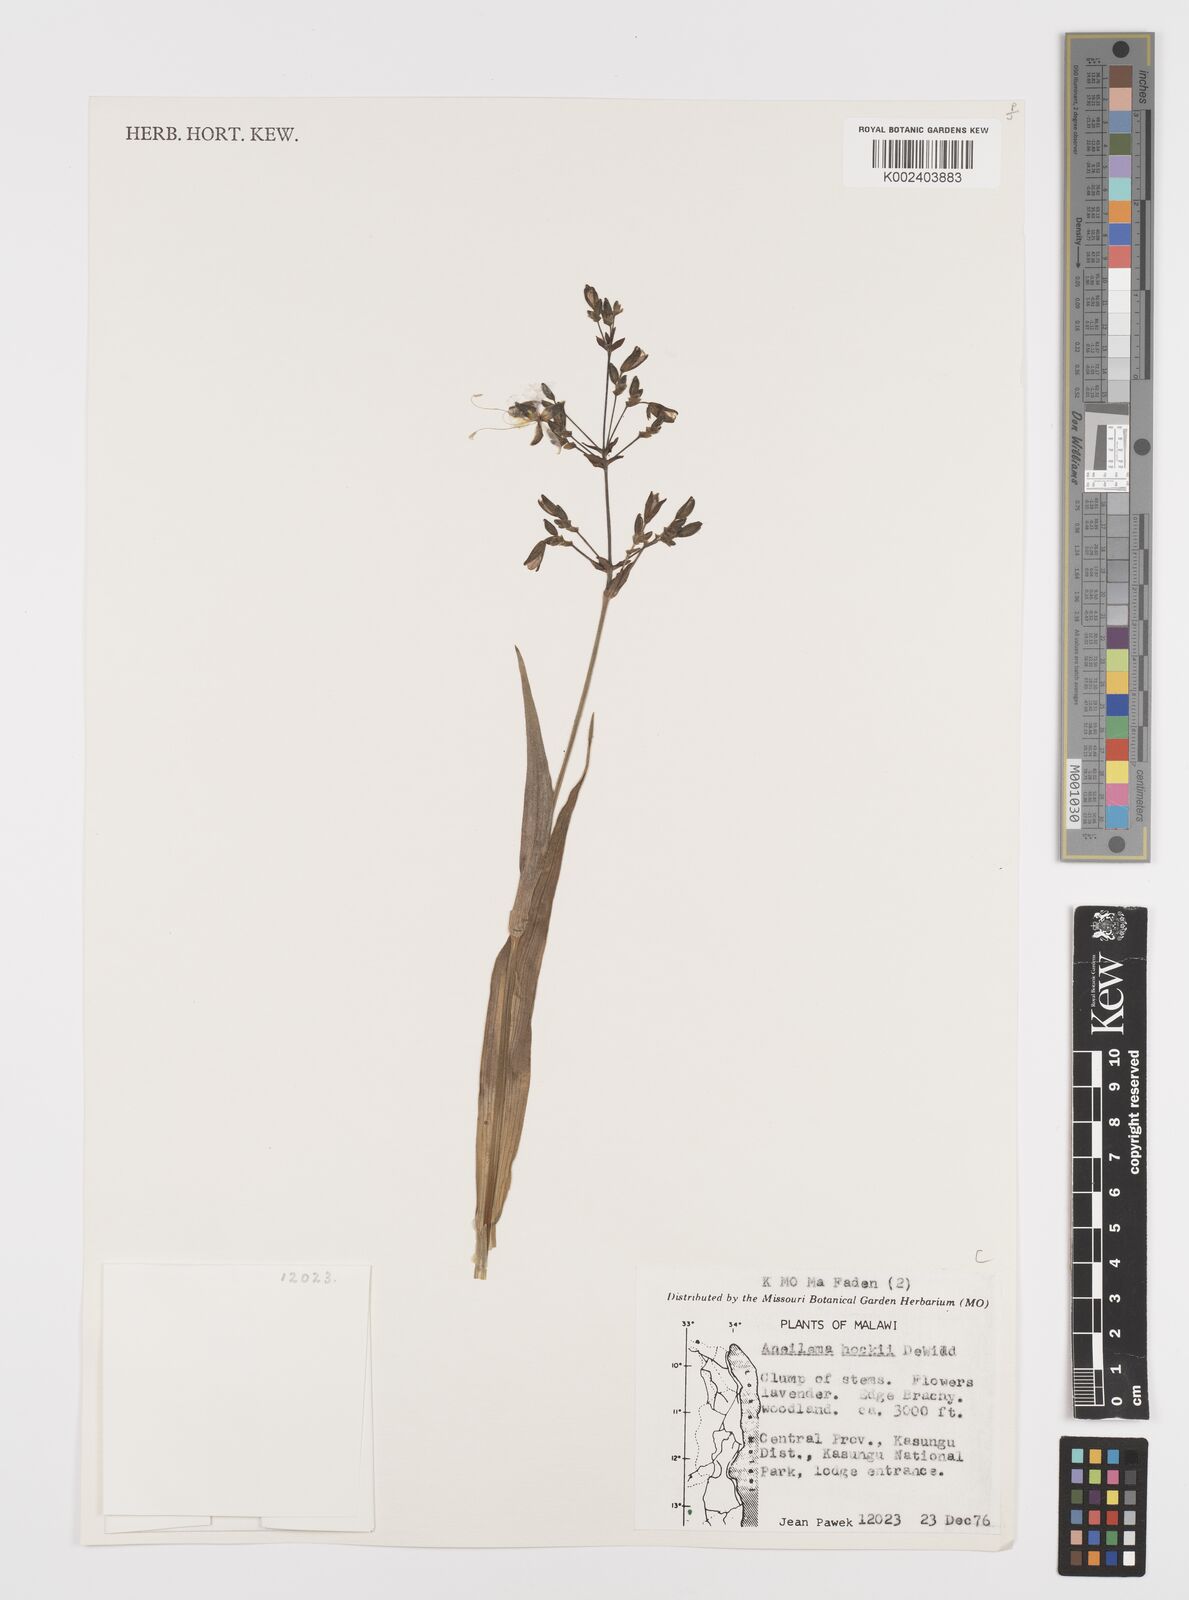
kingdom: Plantae
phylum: Tracheophyta
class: Liliopsida
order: Commelinales
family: Commelinaceae
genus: Aneilema
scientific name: Aneilema hockii
